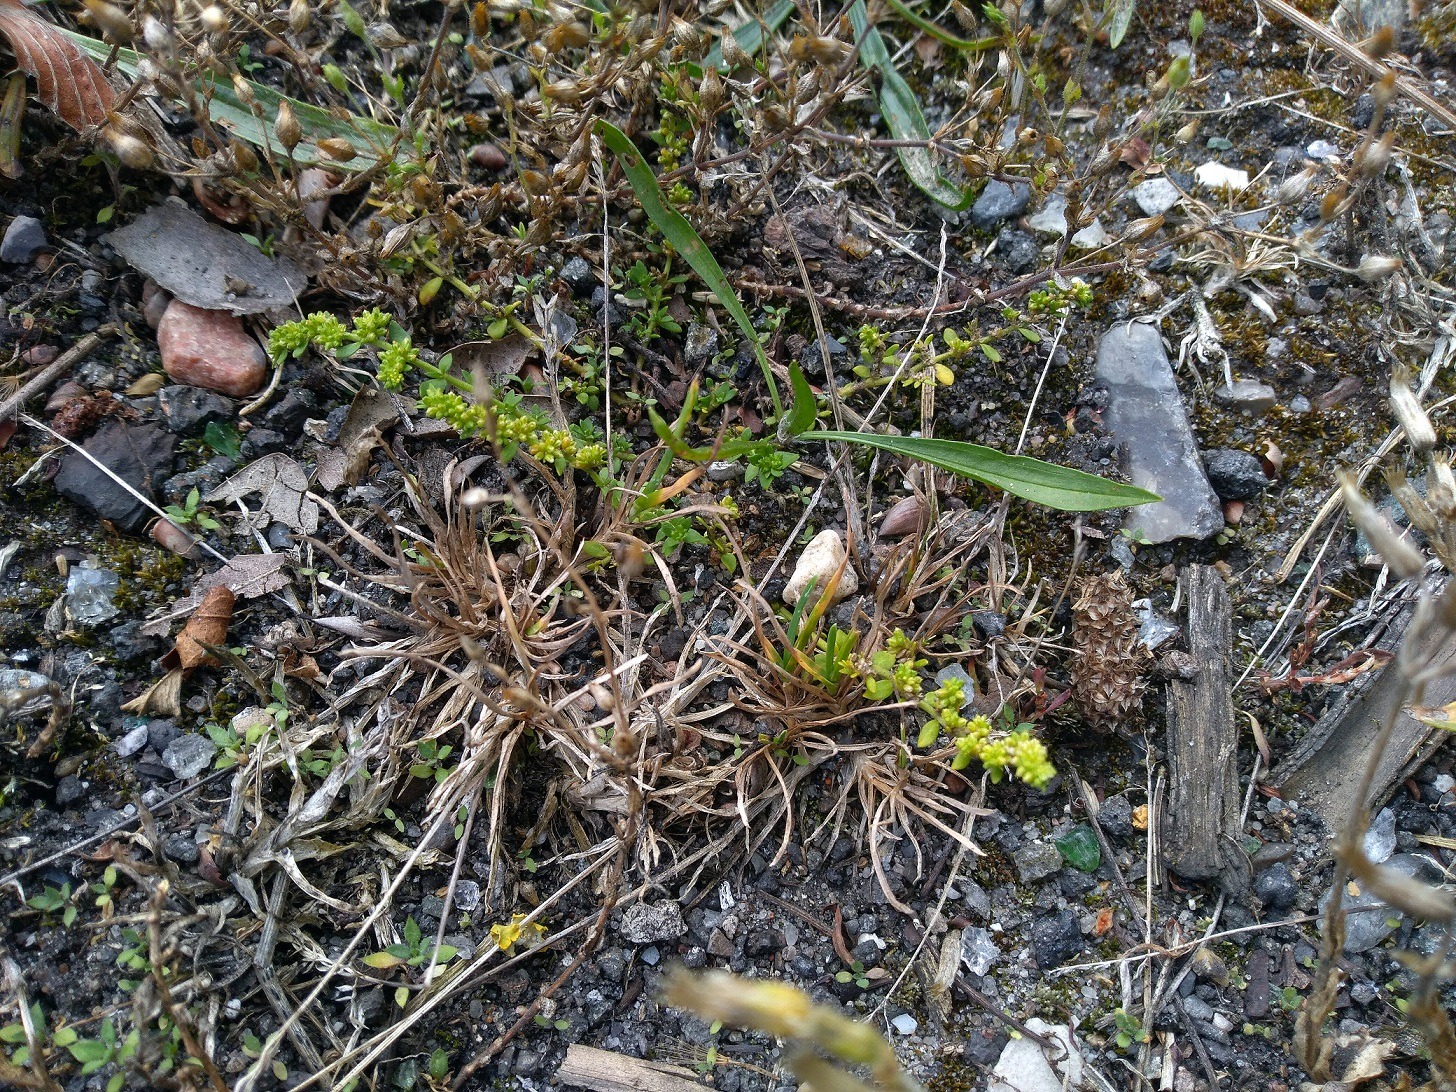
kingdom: Plantae
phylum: Tracheophyta
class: Magnoliopsida
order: Caryophyllales
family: Caryophyllaceae
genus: Herniaria
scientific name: Herniaria glabra
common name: Brudurt
